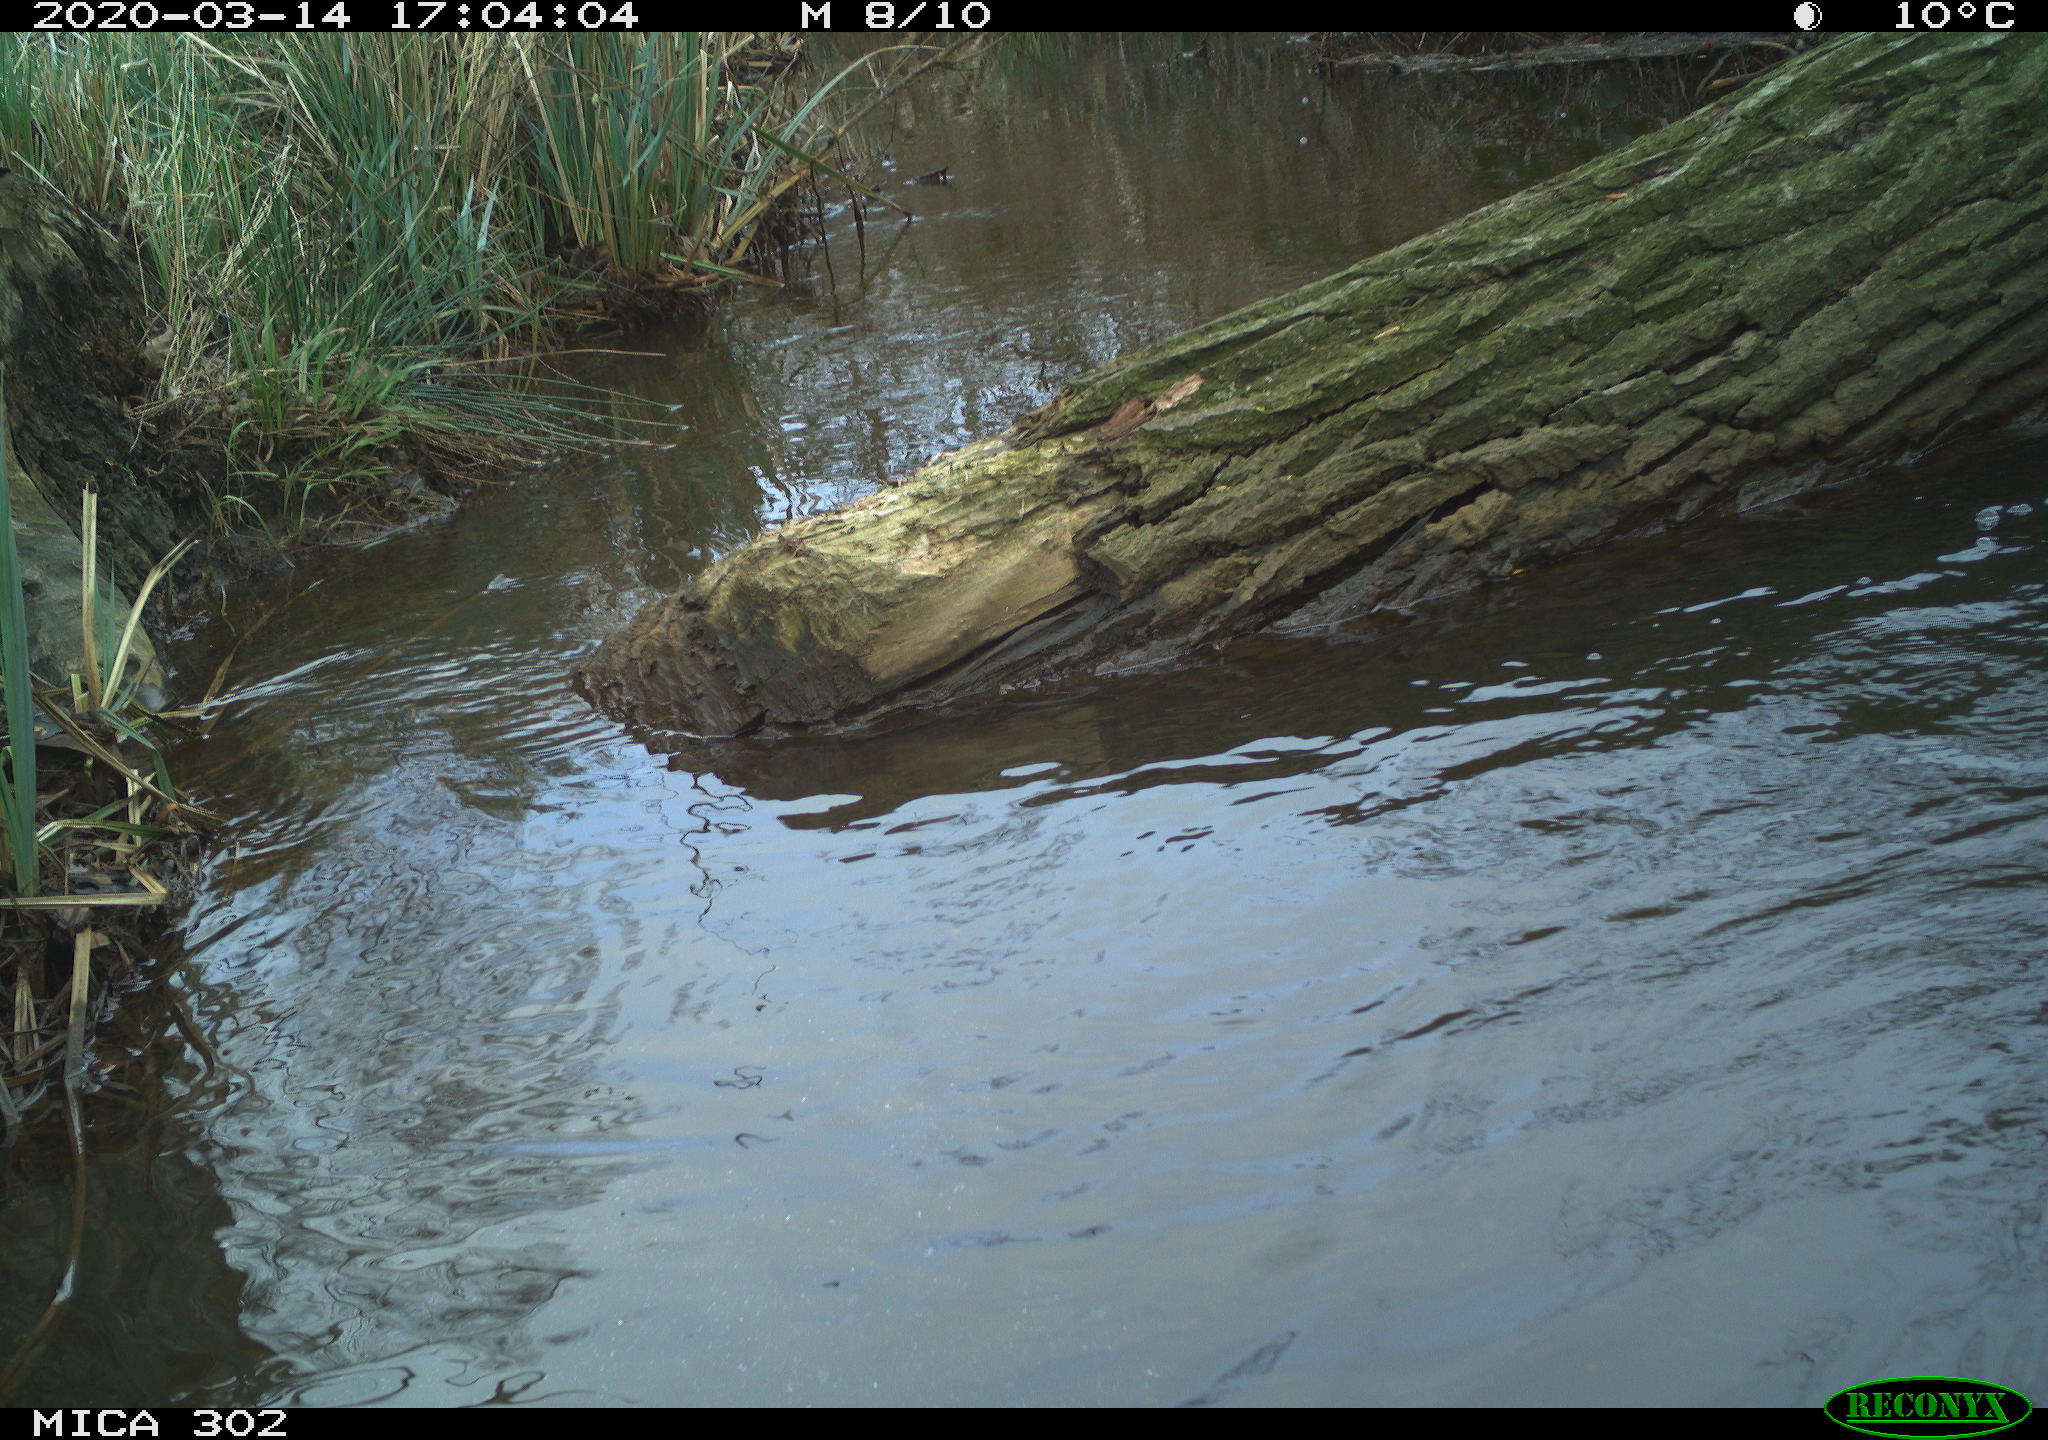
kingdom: Animalia
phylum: Chordata
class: Aves
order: Anseriformes
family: Anatidae
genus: Anas
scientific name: Anas platyrhynchos
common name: Mallard
